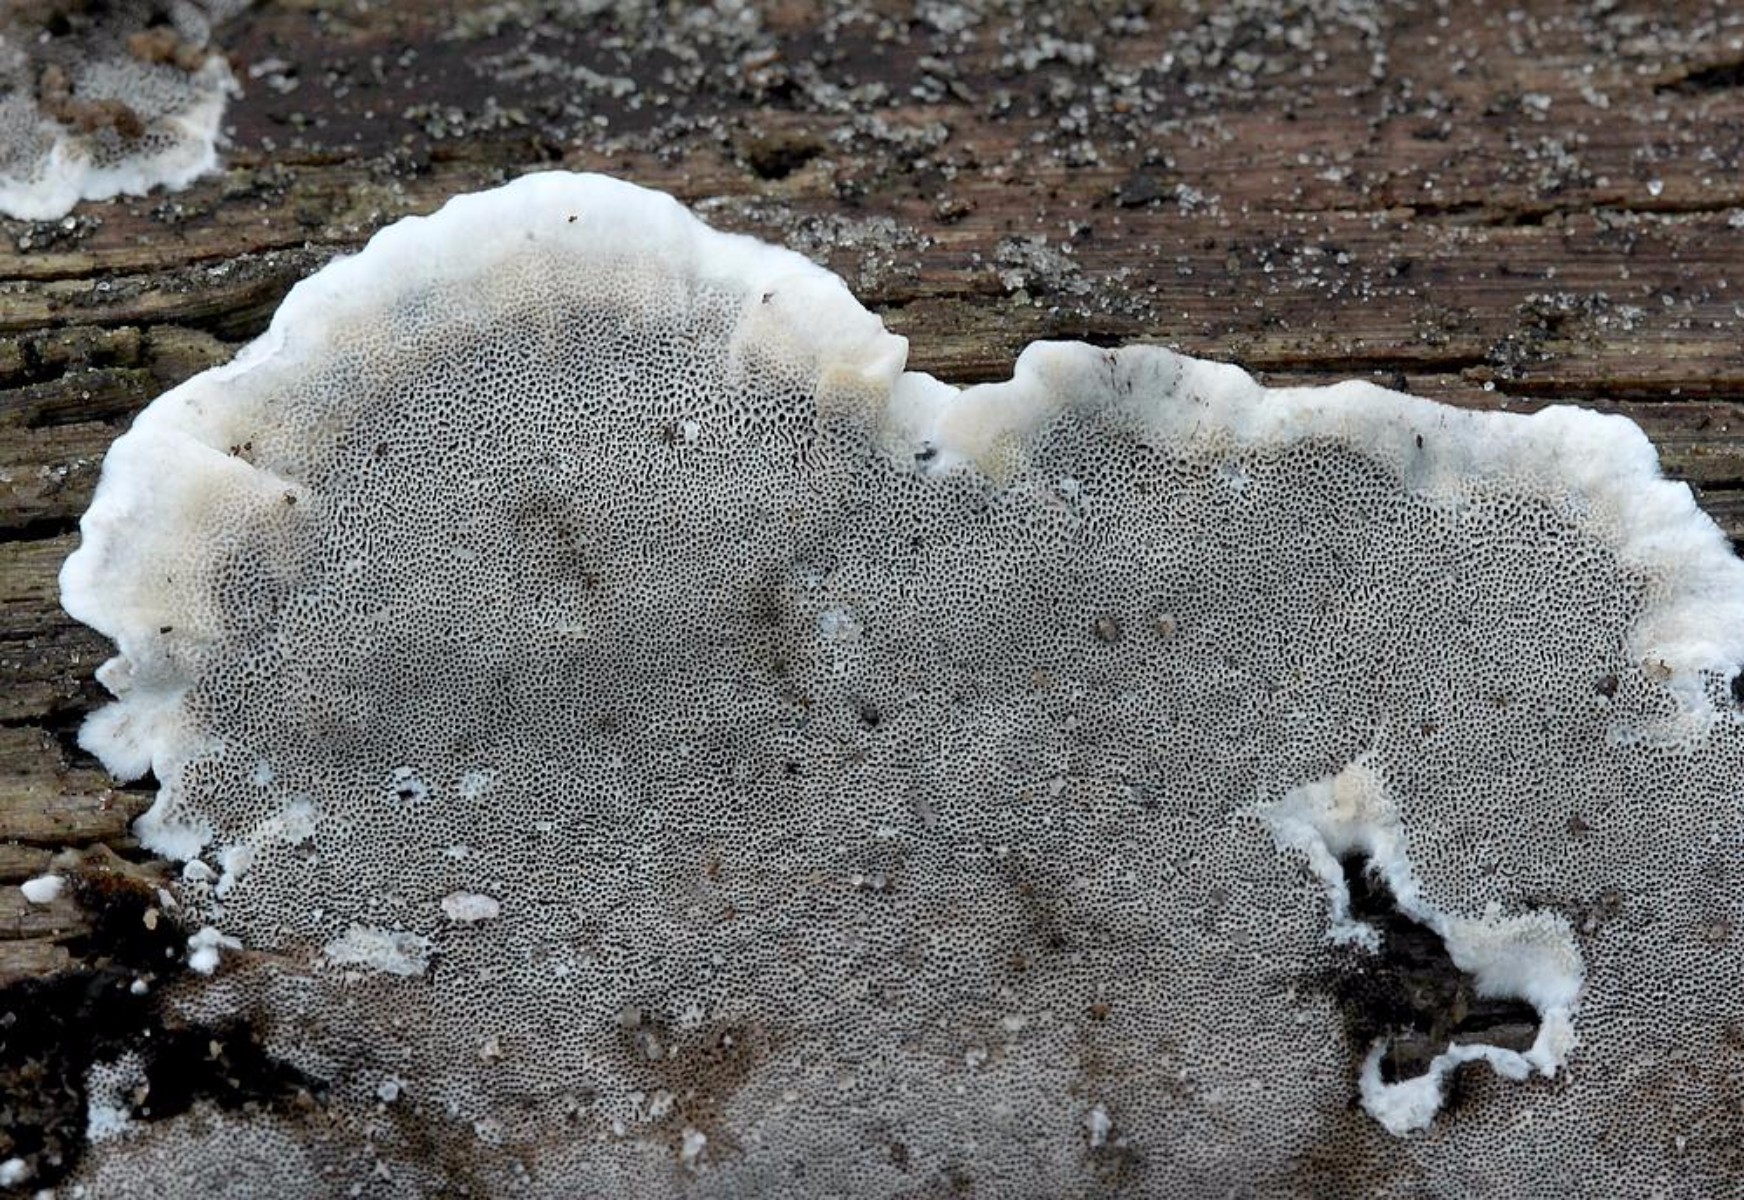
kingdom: Fungi
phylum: Basidiomycota
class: Agaricomycetes
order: Polyporales
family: Phanerochaetaceae
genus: Bjerkandera
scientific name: Bjerkandera adusta
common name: sveden sodporesvamp
